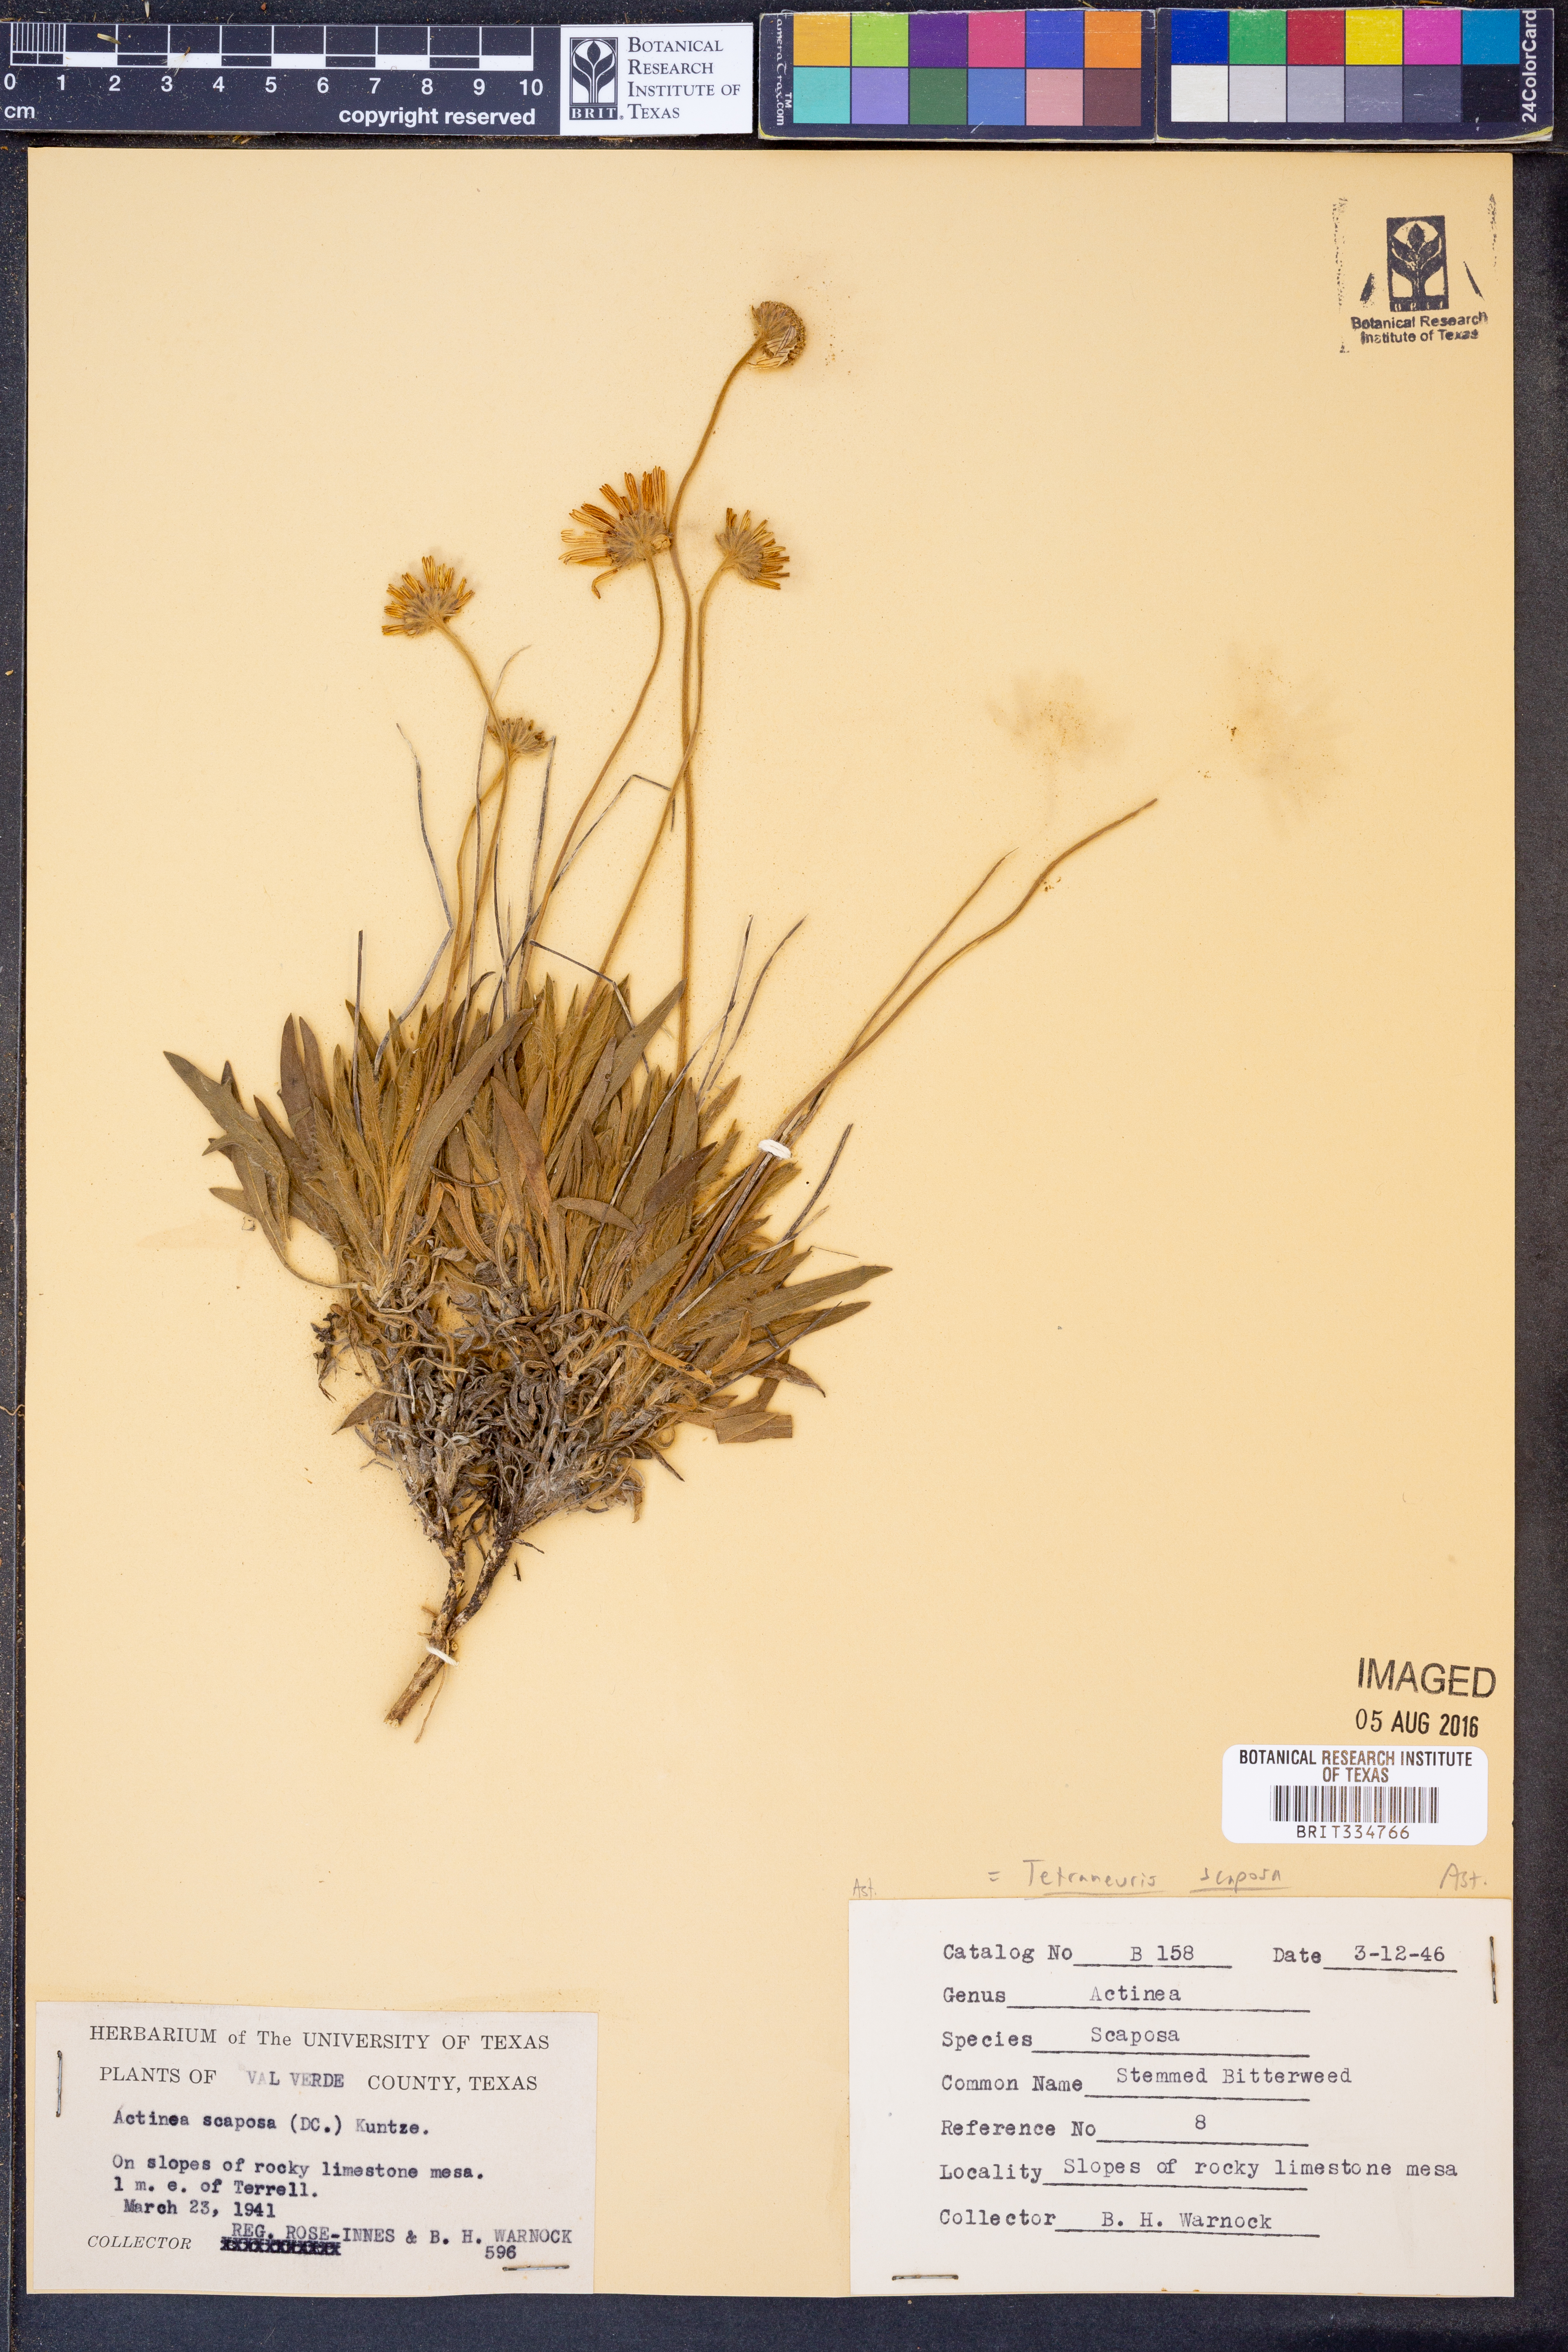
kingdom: Plantae
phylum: Tracheophyta
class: Magnoliopsida
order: Asterales
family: Asteraceae
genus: Tetraneuris
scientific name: Tetraneuris scaposa
